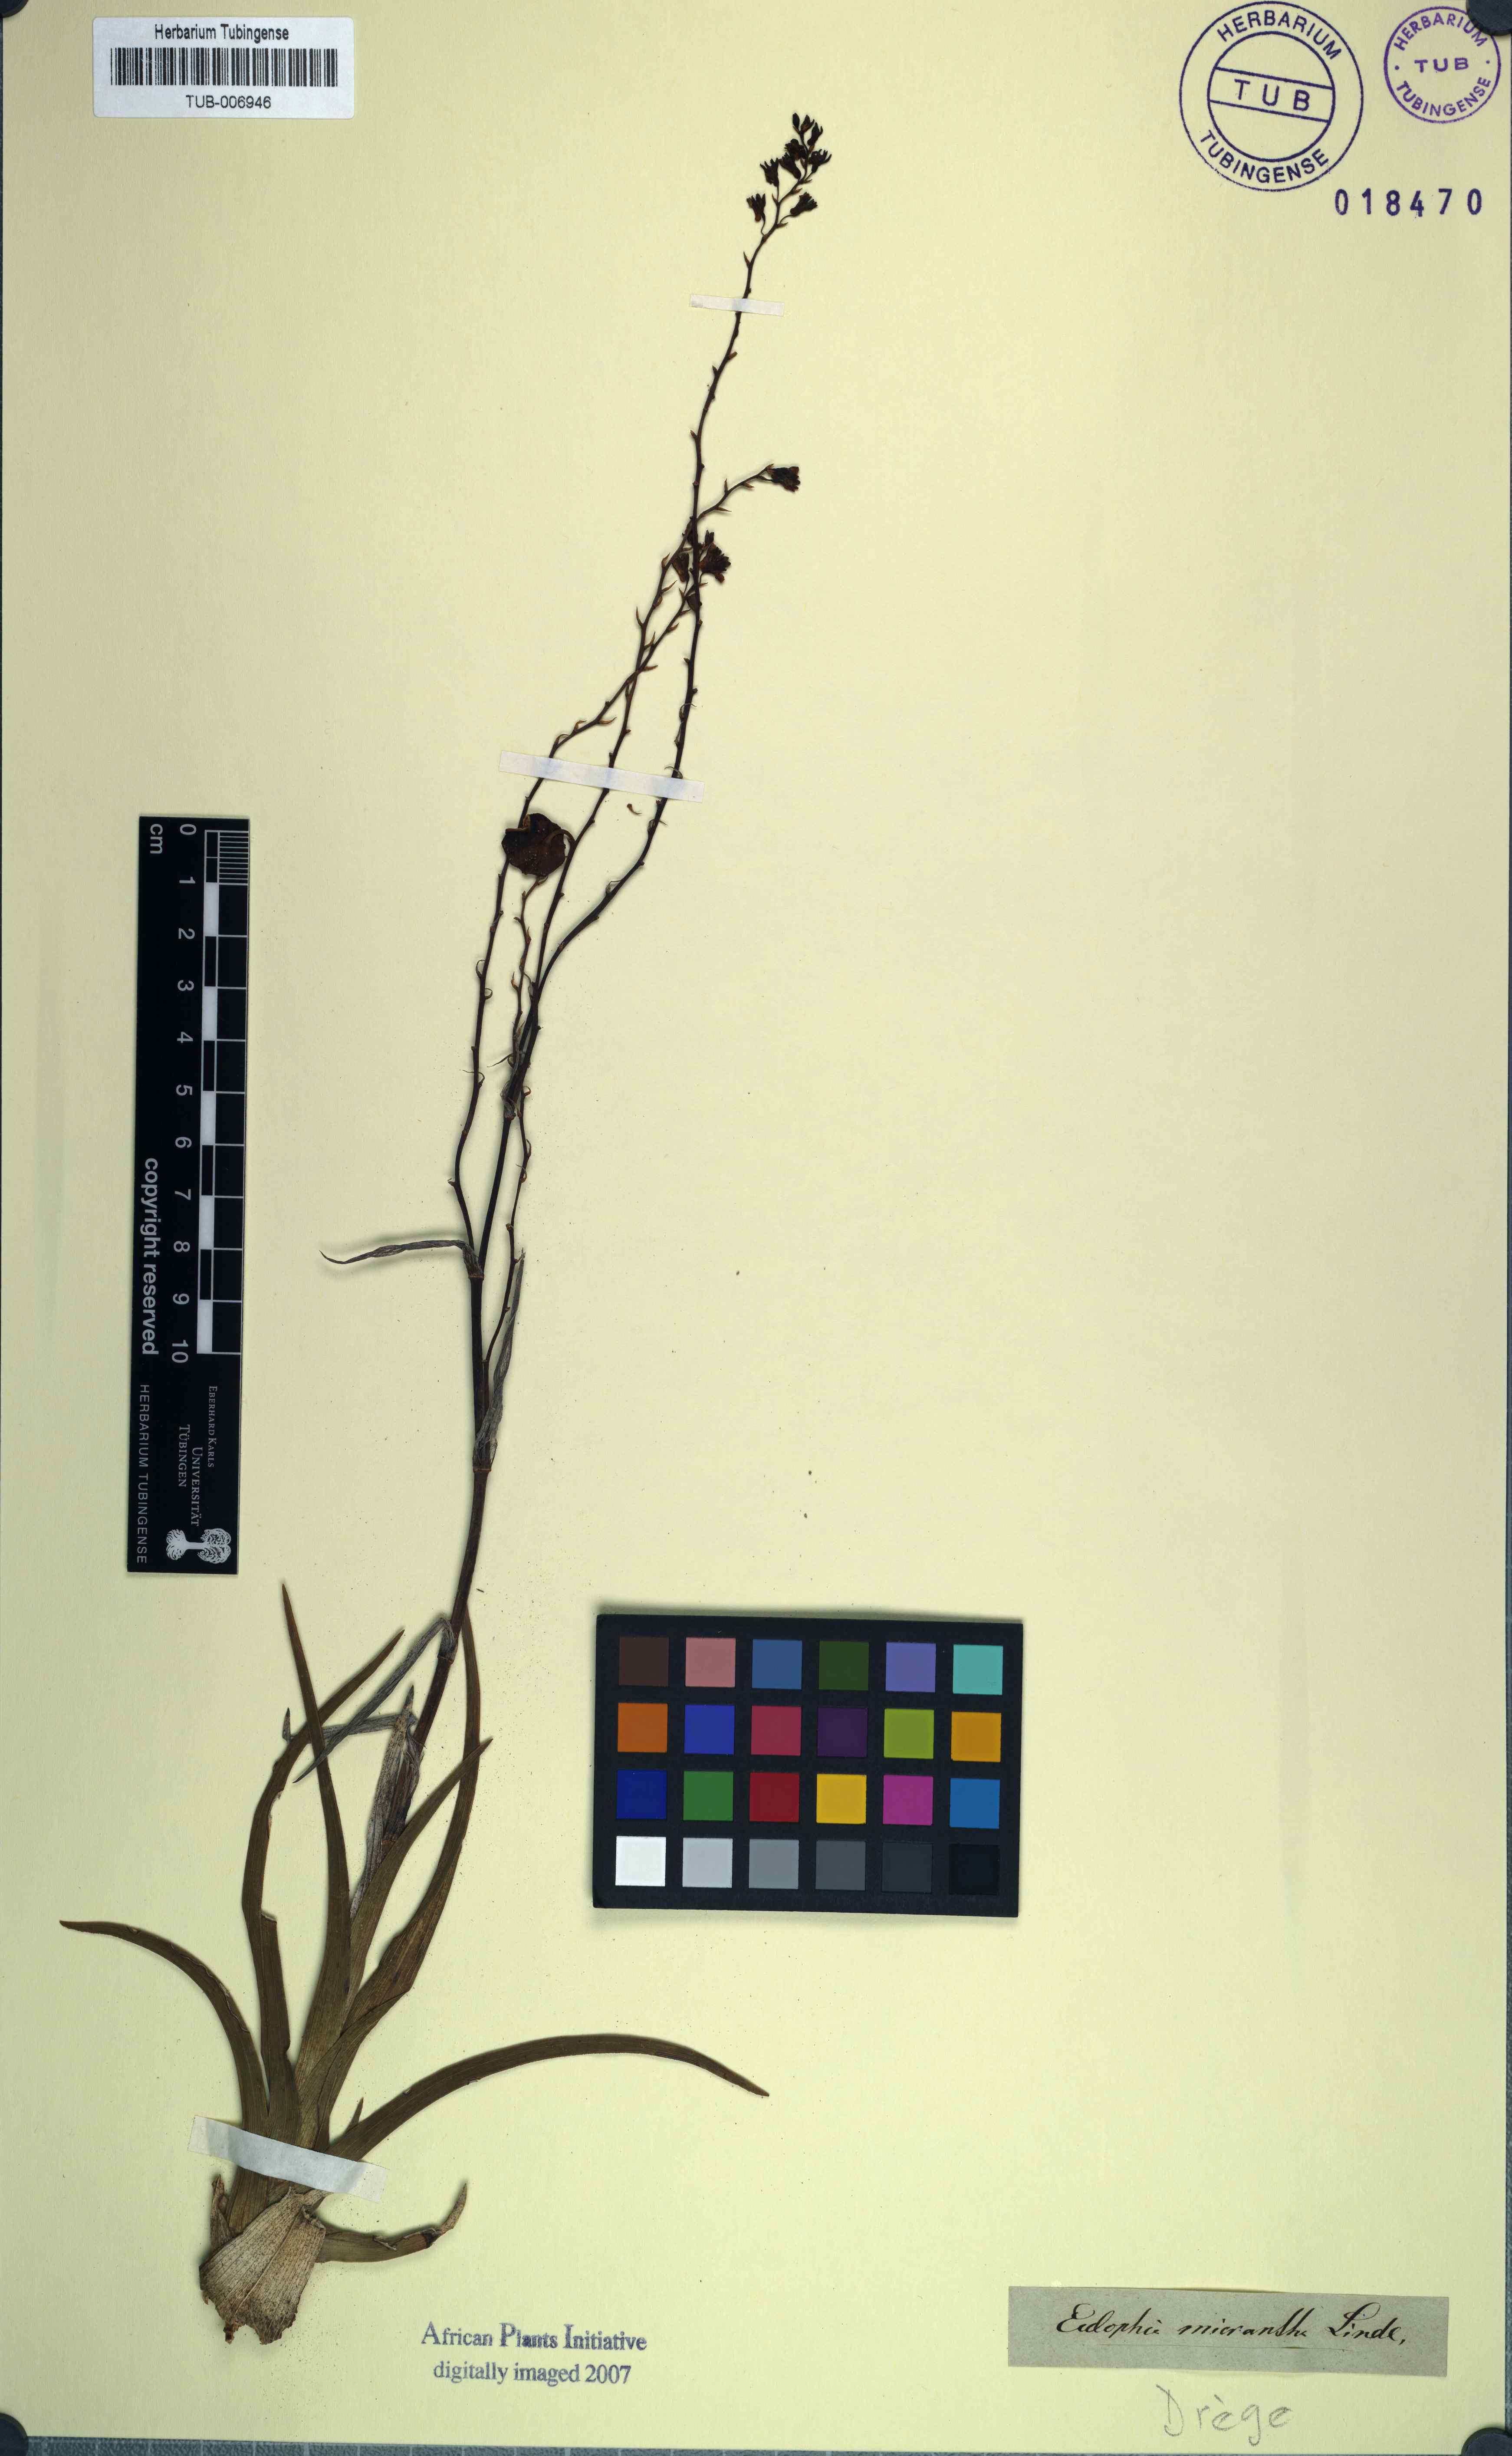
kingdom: Plantae
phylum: Tracheophyta
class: Liliopsida
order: Asparagales
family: Orchidaceae
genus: Eulophia
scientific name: Eulophia micrantha
